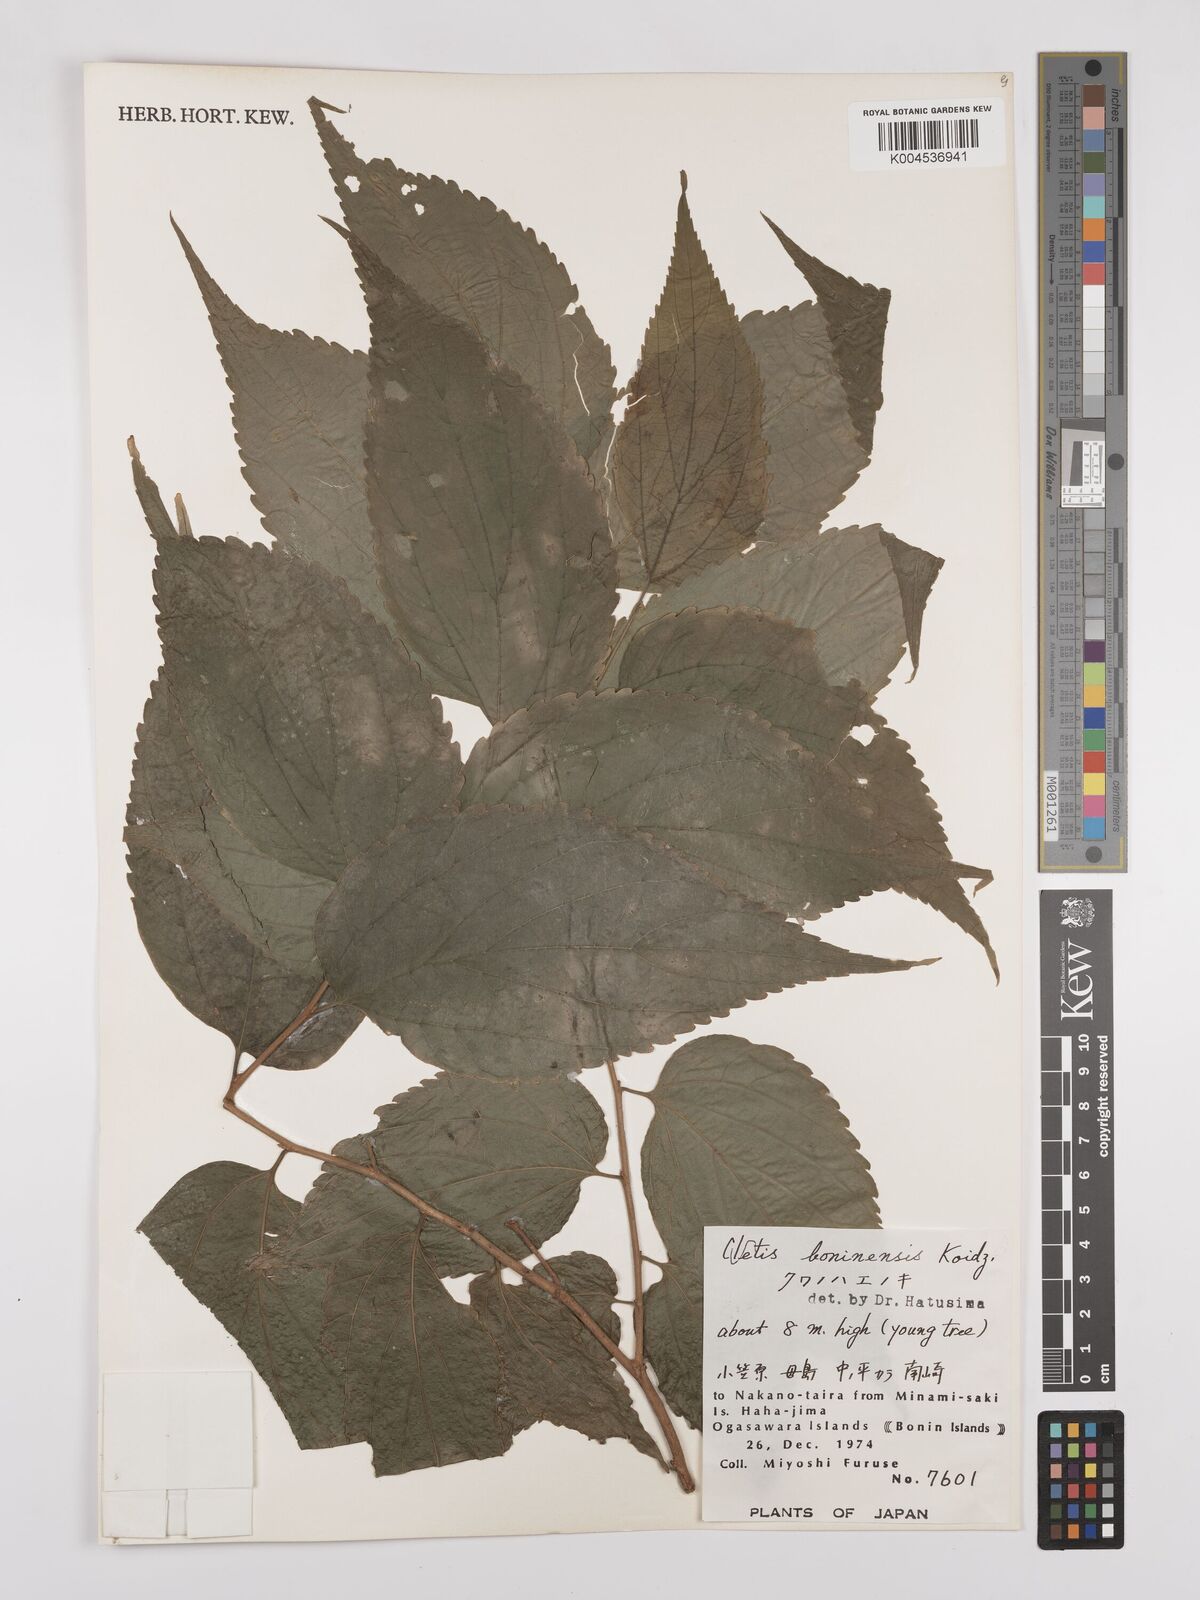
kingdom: Plantae
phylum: Tracheophyta
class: Magnoliopsida
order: Rosales
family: Cannabaceae
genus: Celtis
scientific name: Celtis boninensis
